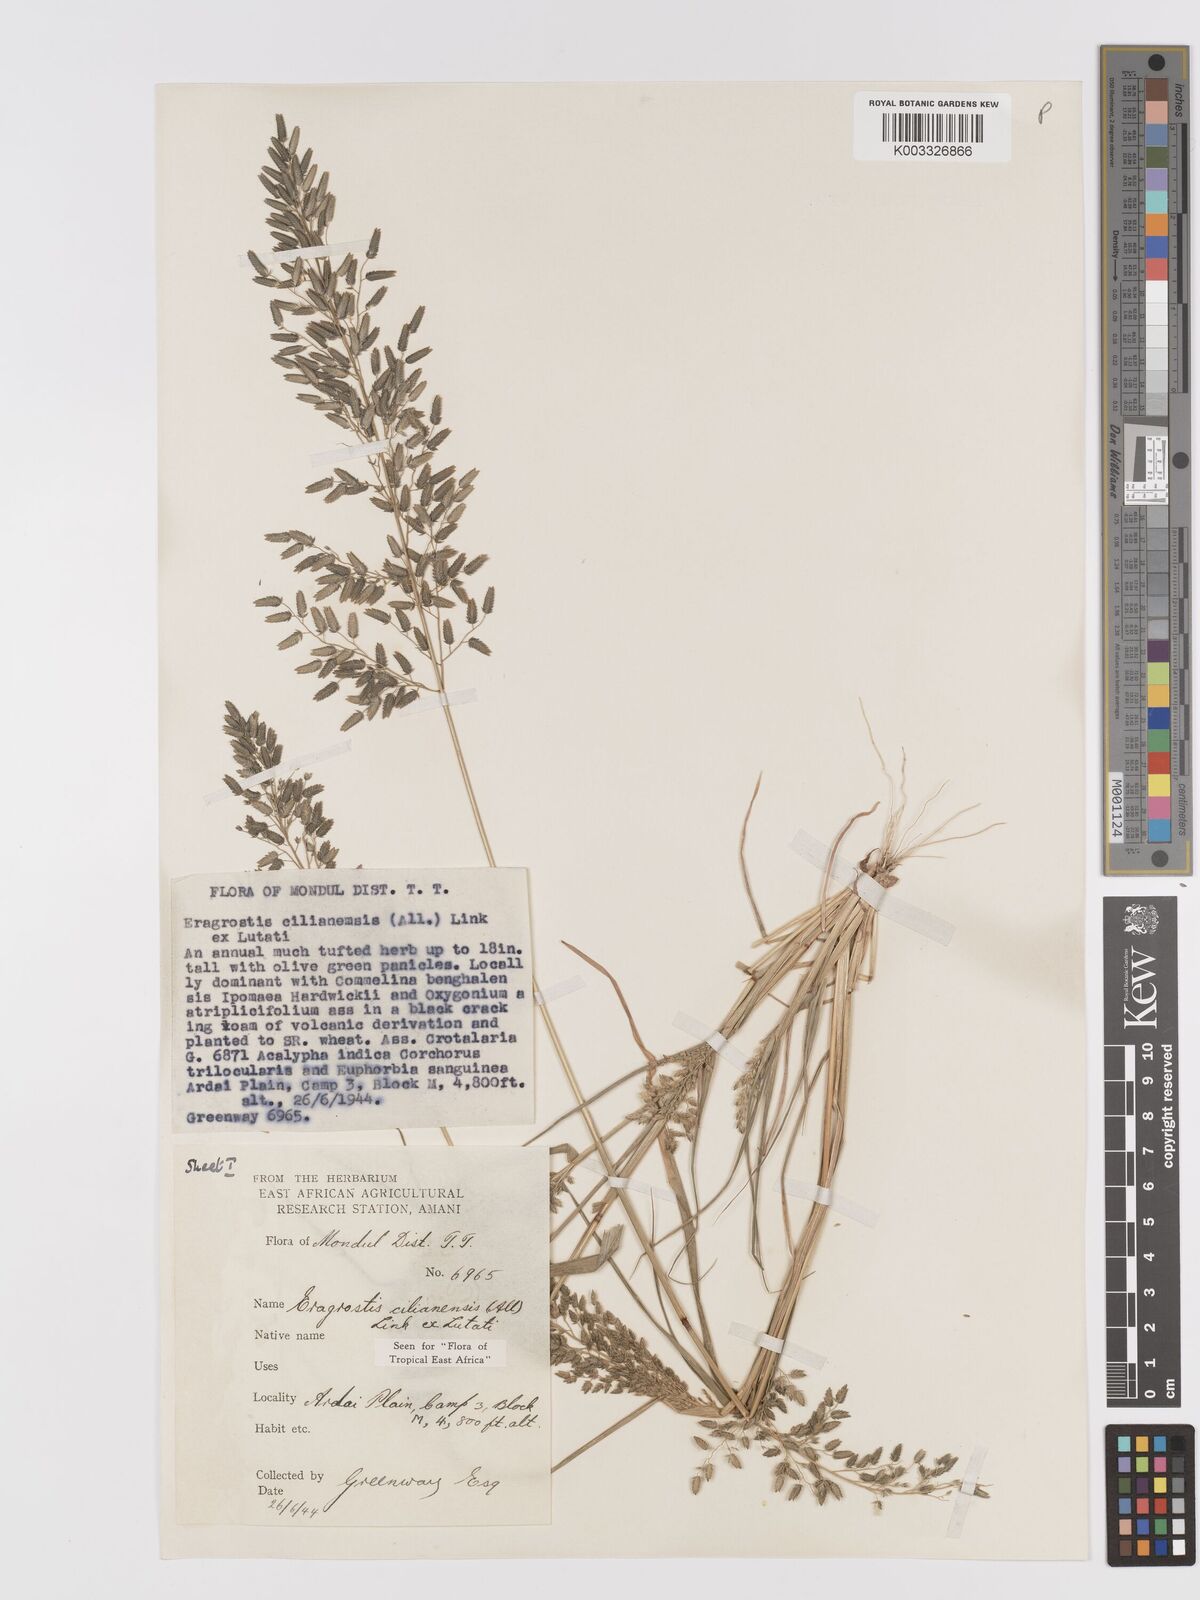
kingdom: Plantae
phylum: Tracheophyta
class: Liliopsida
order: Poales
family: Poaceae
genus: Eragrostis
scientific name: Eragrostis cilianensis
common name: Stinkgrass
